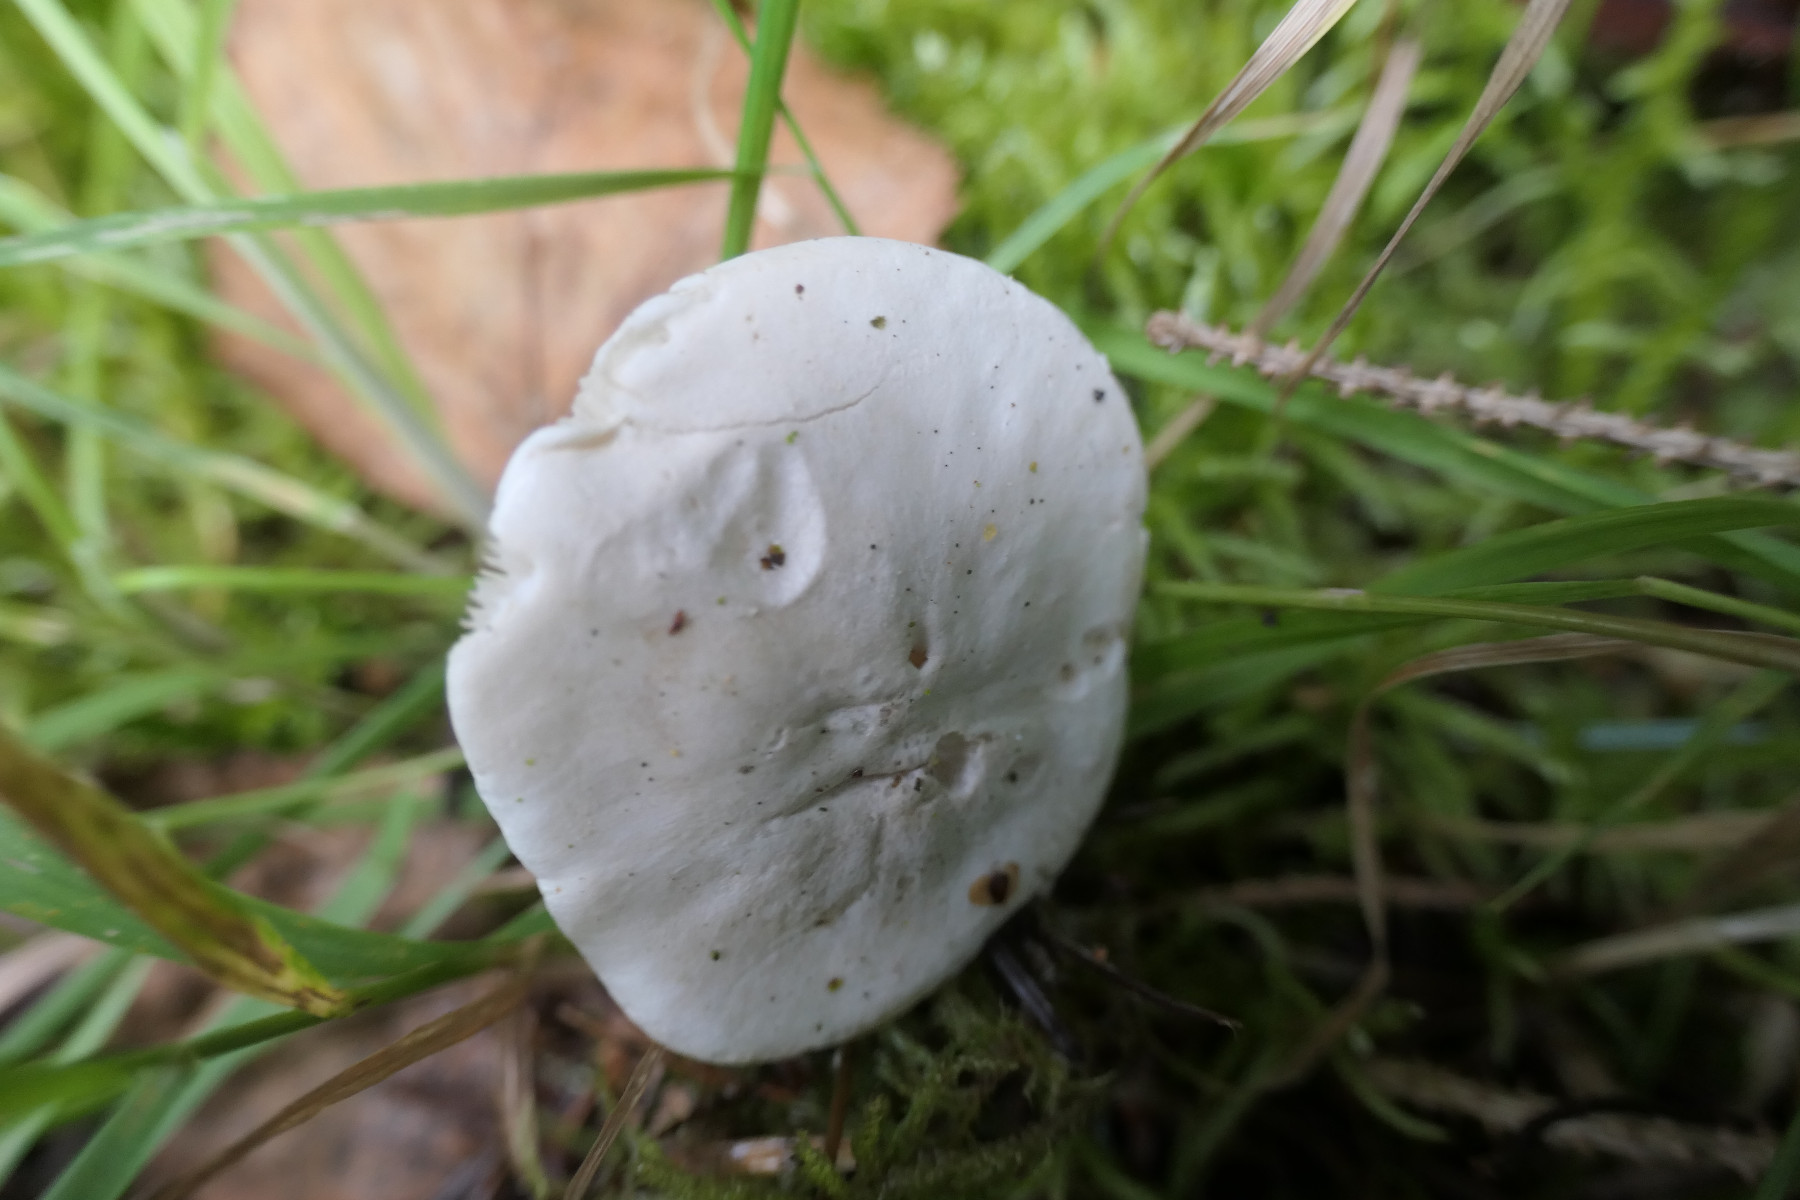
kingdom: Fungi
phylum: Basidiomycota
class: Agaricomycetes
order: Agaricales
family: Entolomataceae
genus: Clitopilus
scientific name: Clitopilus prunulus
